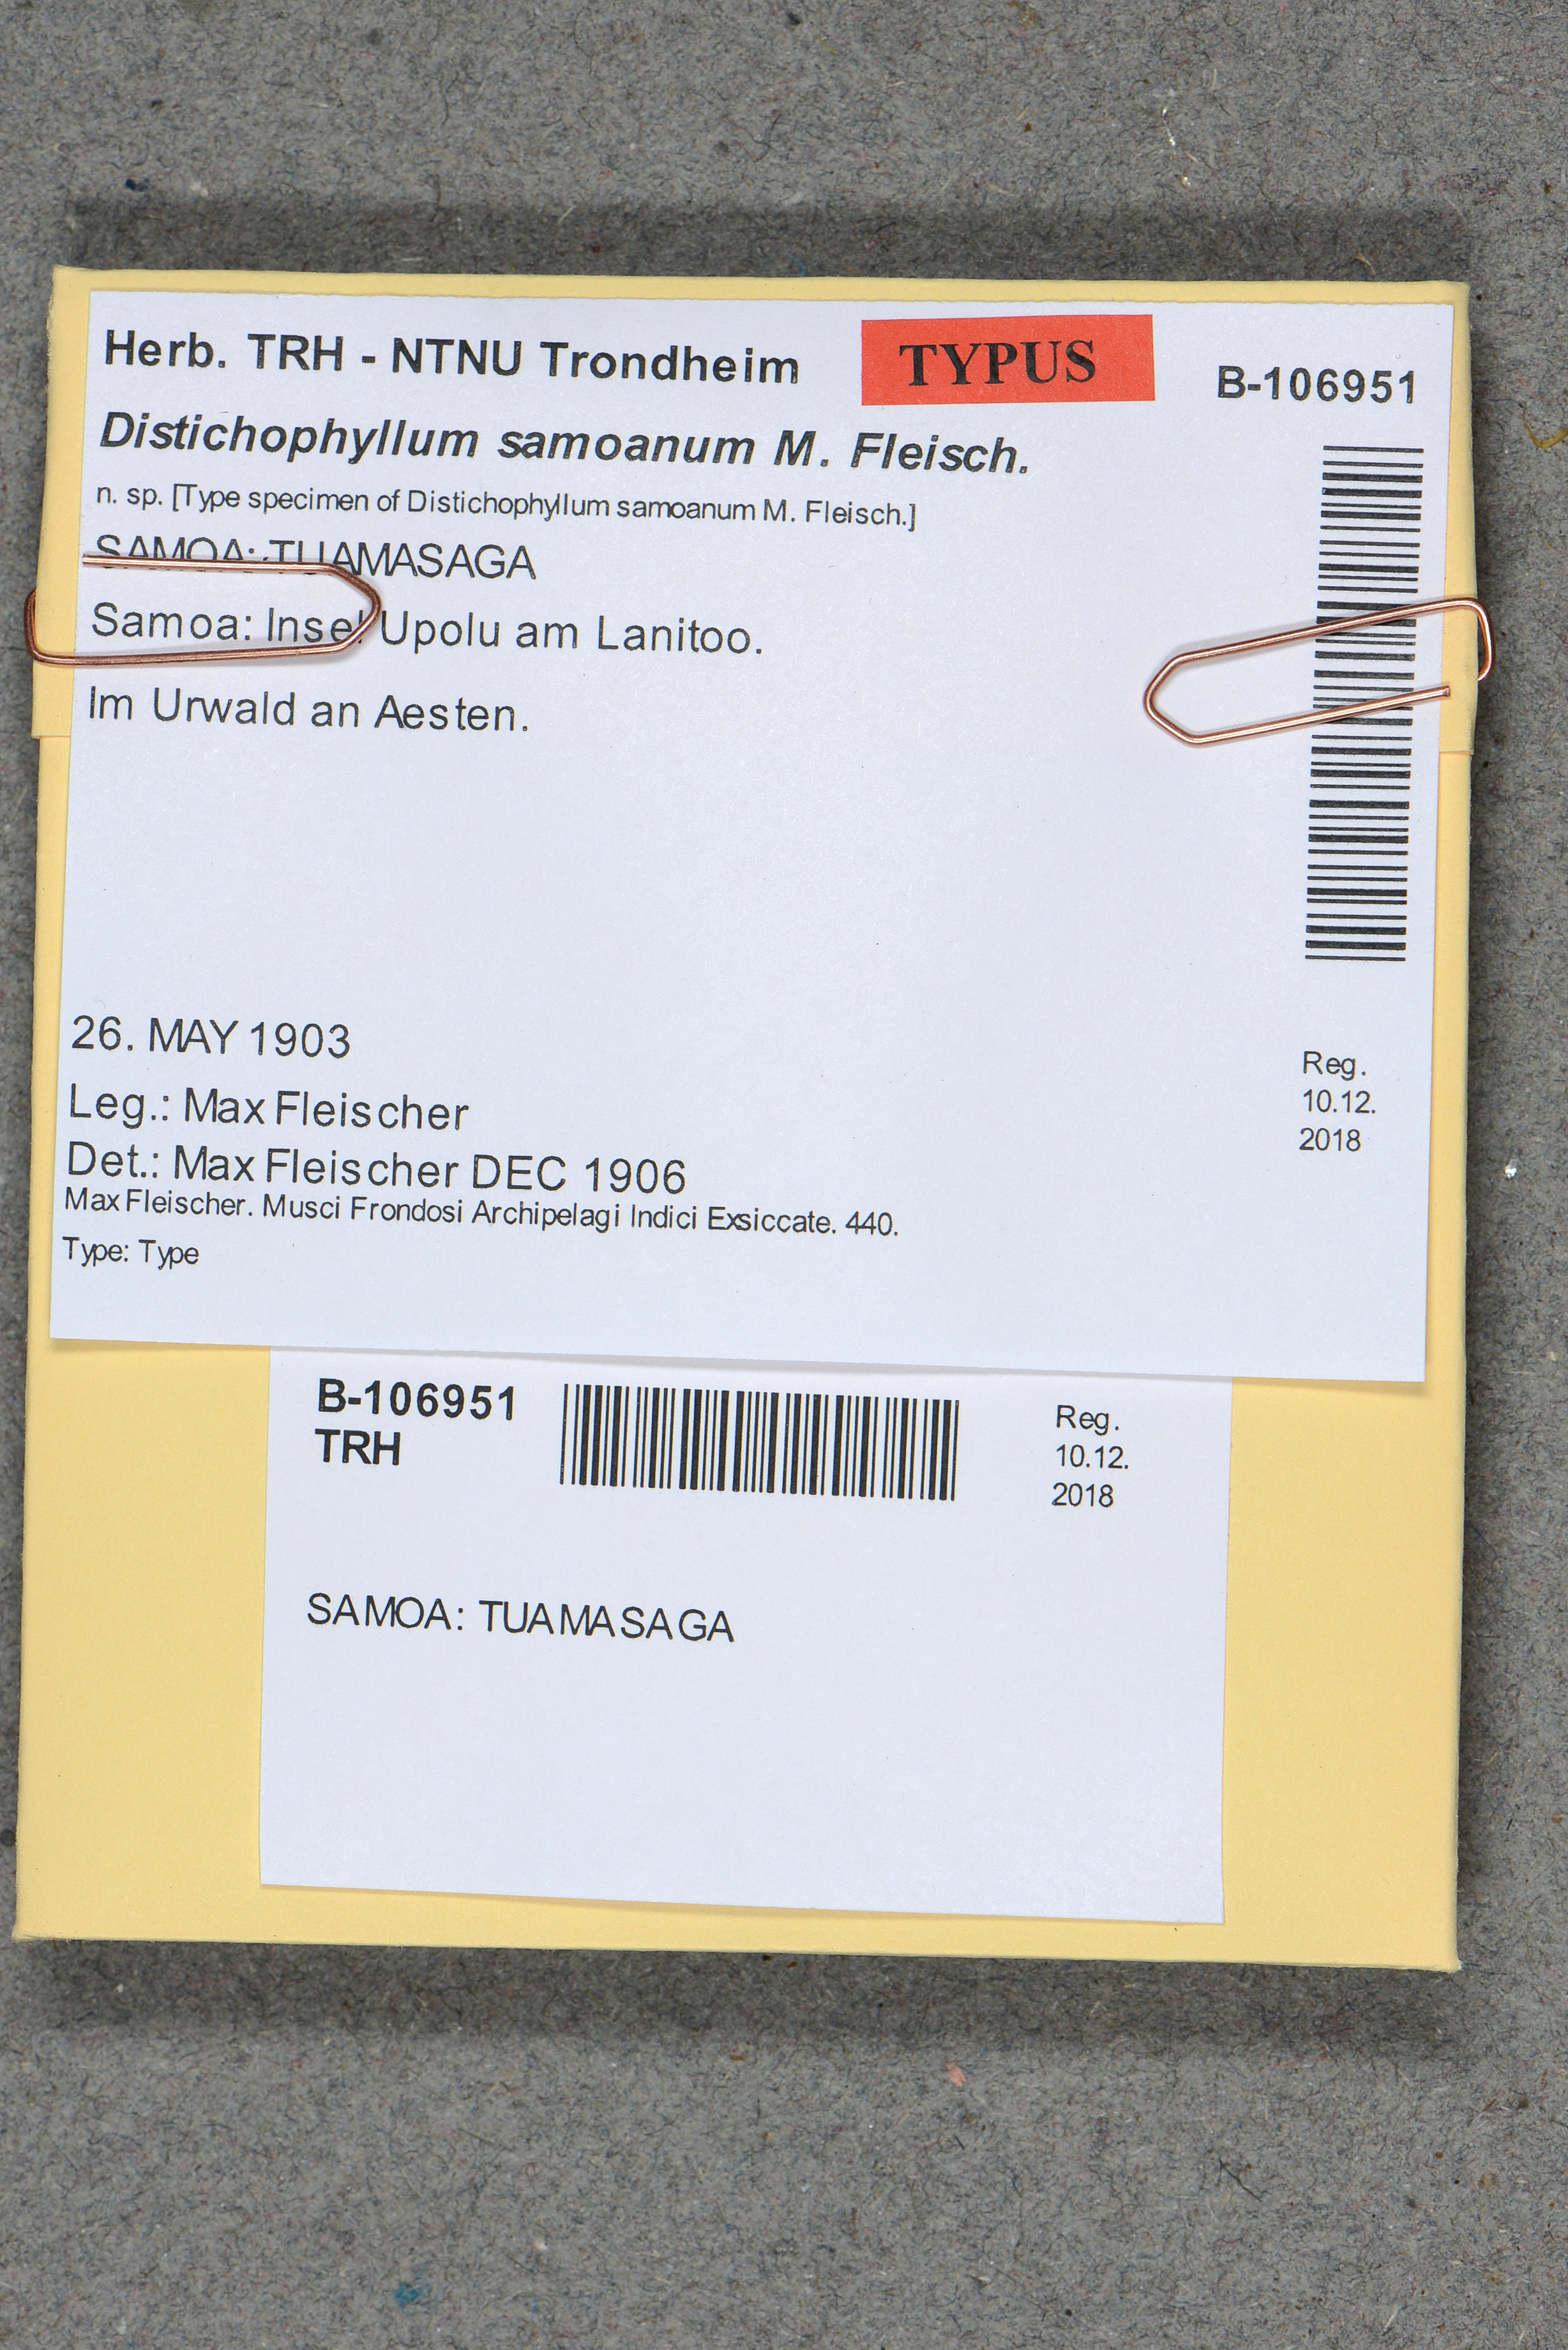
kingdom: Plantae
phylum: Bryophyta
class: Bryopsida
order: Hookeriales
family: Daltoniaceae
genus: Distichophyllum
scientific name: Distichophyllum samoanum
